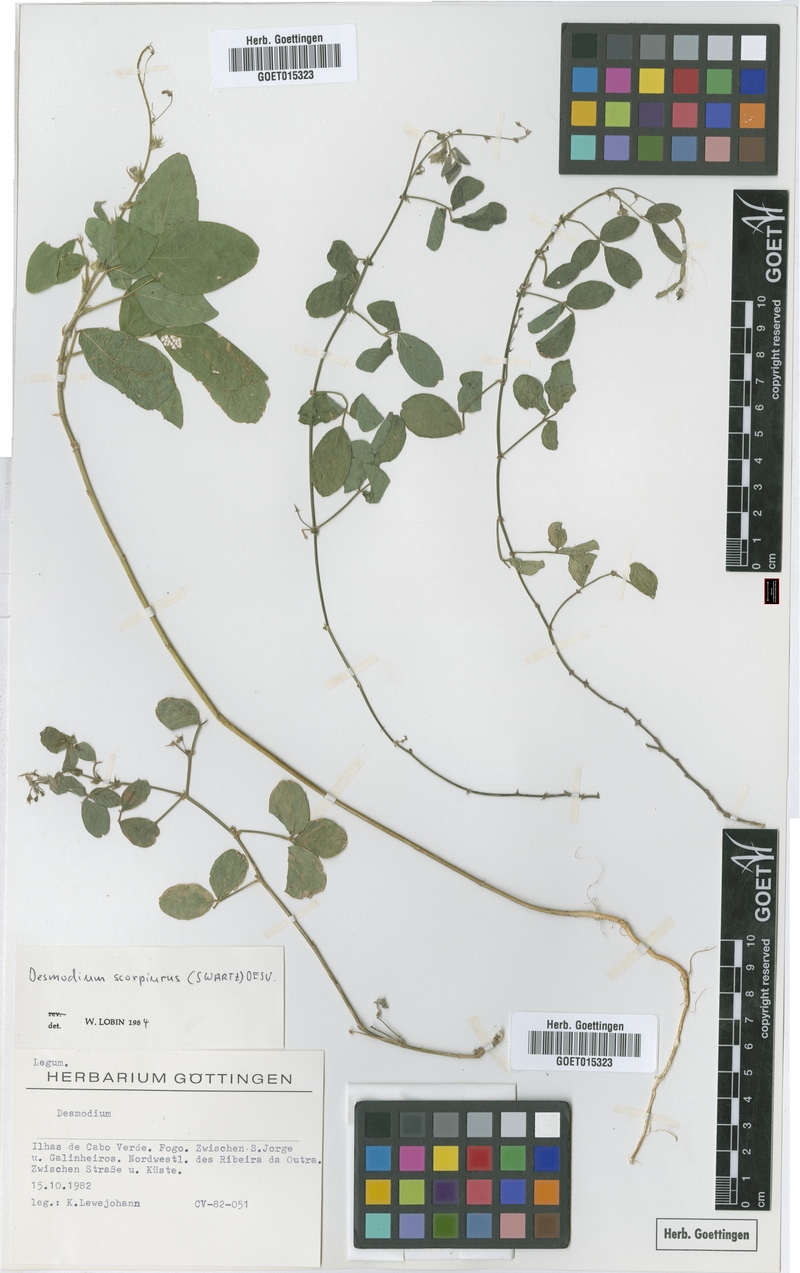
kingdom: Plantae
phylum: Tracheophyta
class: Magnoliopsida
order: Fabales
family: Fabaceae
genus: Desmodium
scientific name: Desmodium scorpiurus
